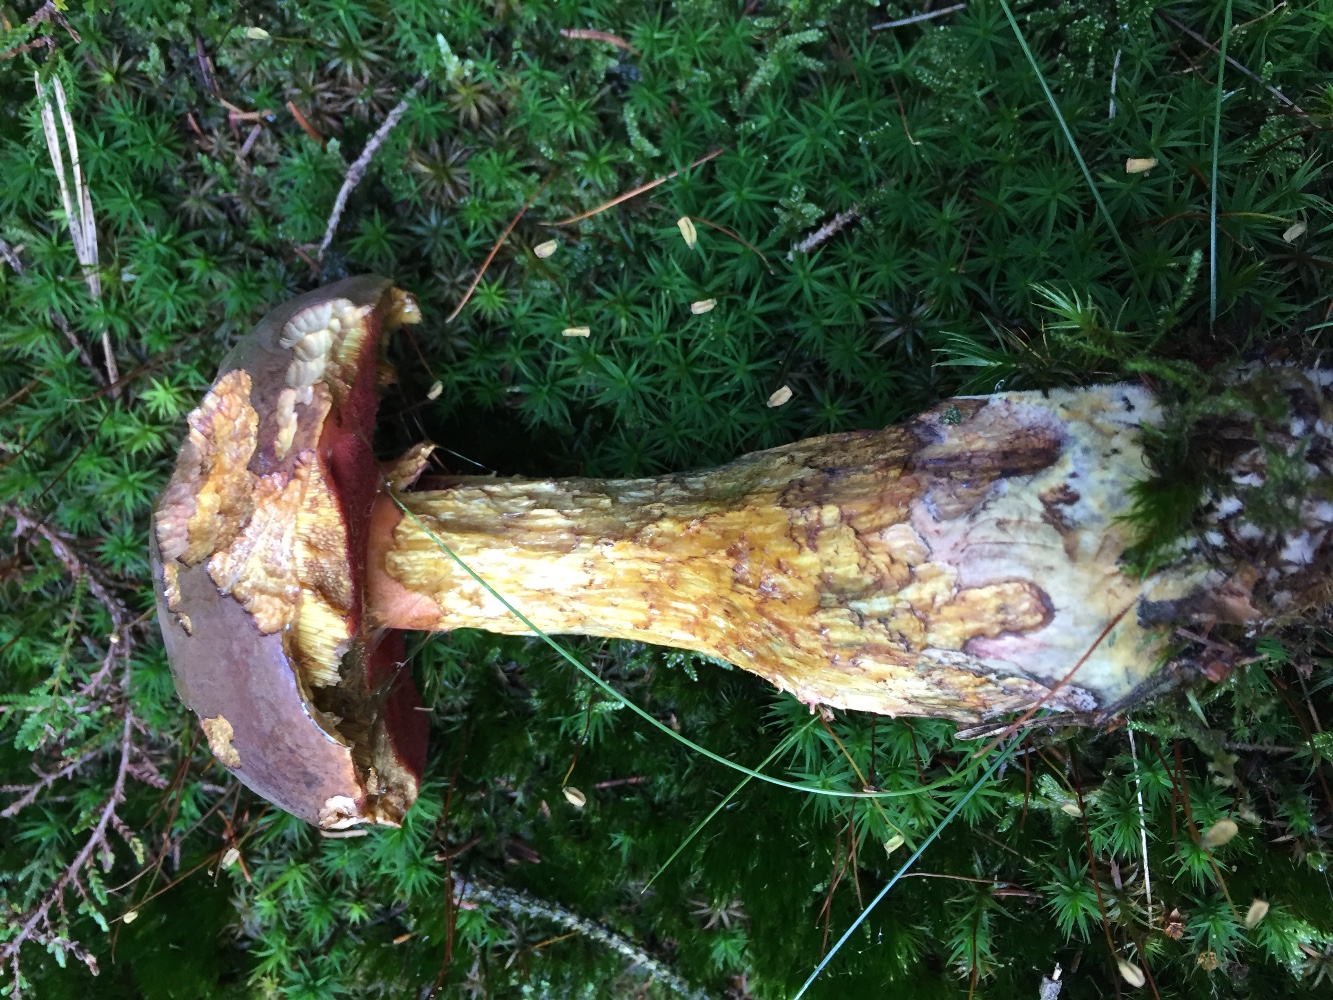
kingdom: Fungi
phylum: Basidiomycota
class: Agaricomycetes
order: Boletales
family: Boletaceae
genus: Neoboletus
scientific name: Neoboletus erythropus
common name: punktstokket indigorørhat
